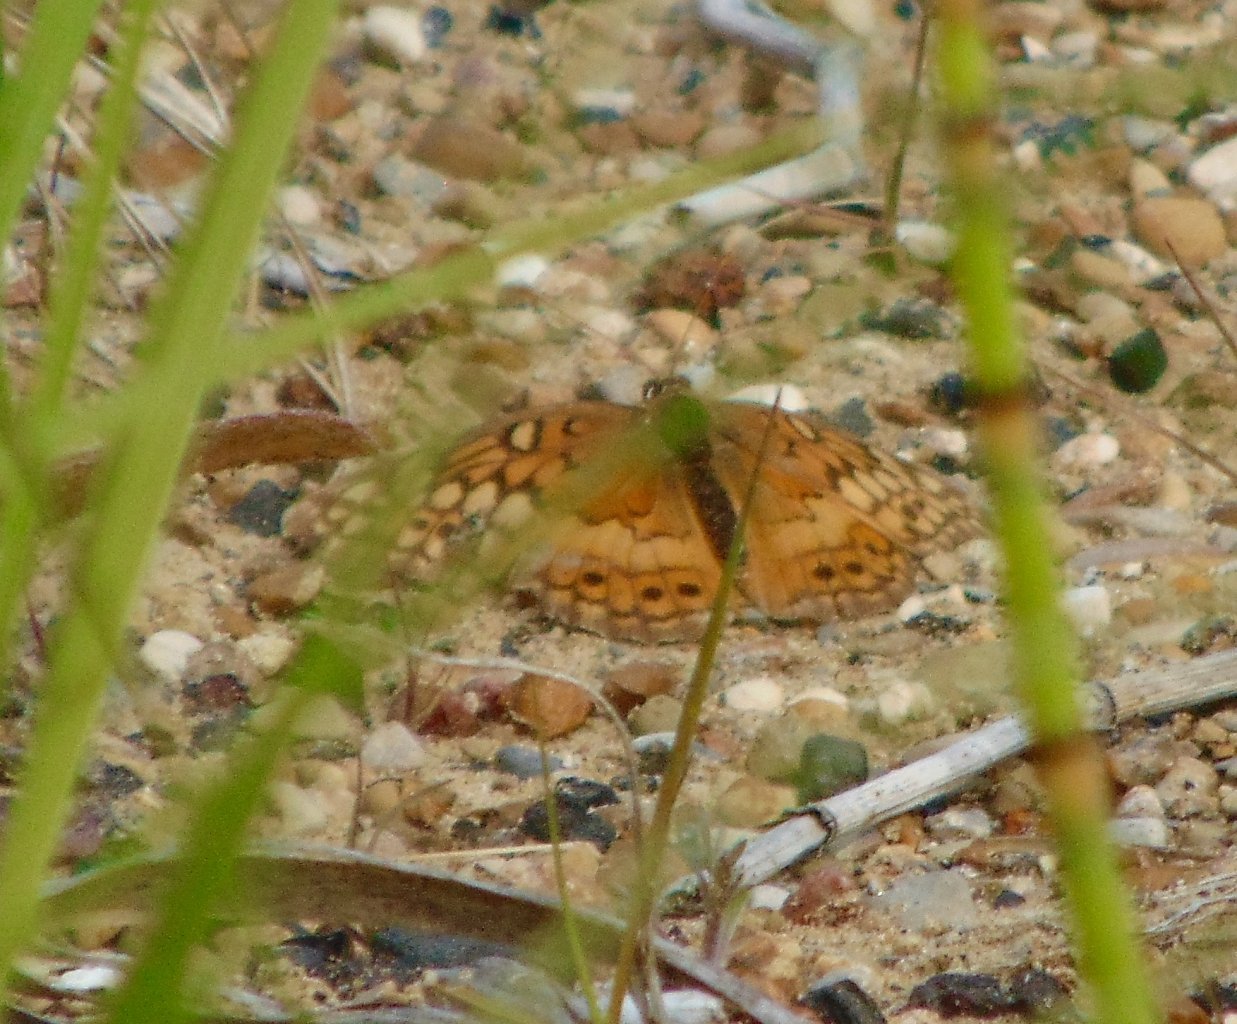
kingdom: Animalia
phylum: Arthropoda
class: Insecta
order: Lepidoptera
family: Nymphalidae
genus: Euptoieta
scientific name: Euptoieta claudia
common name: Variegated Fritillary
